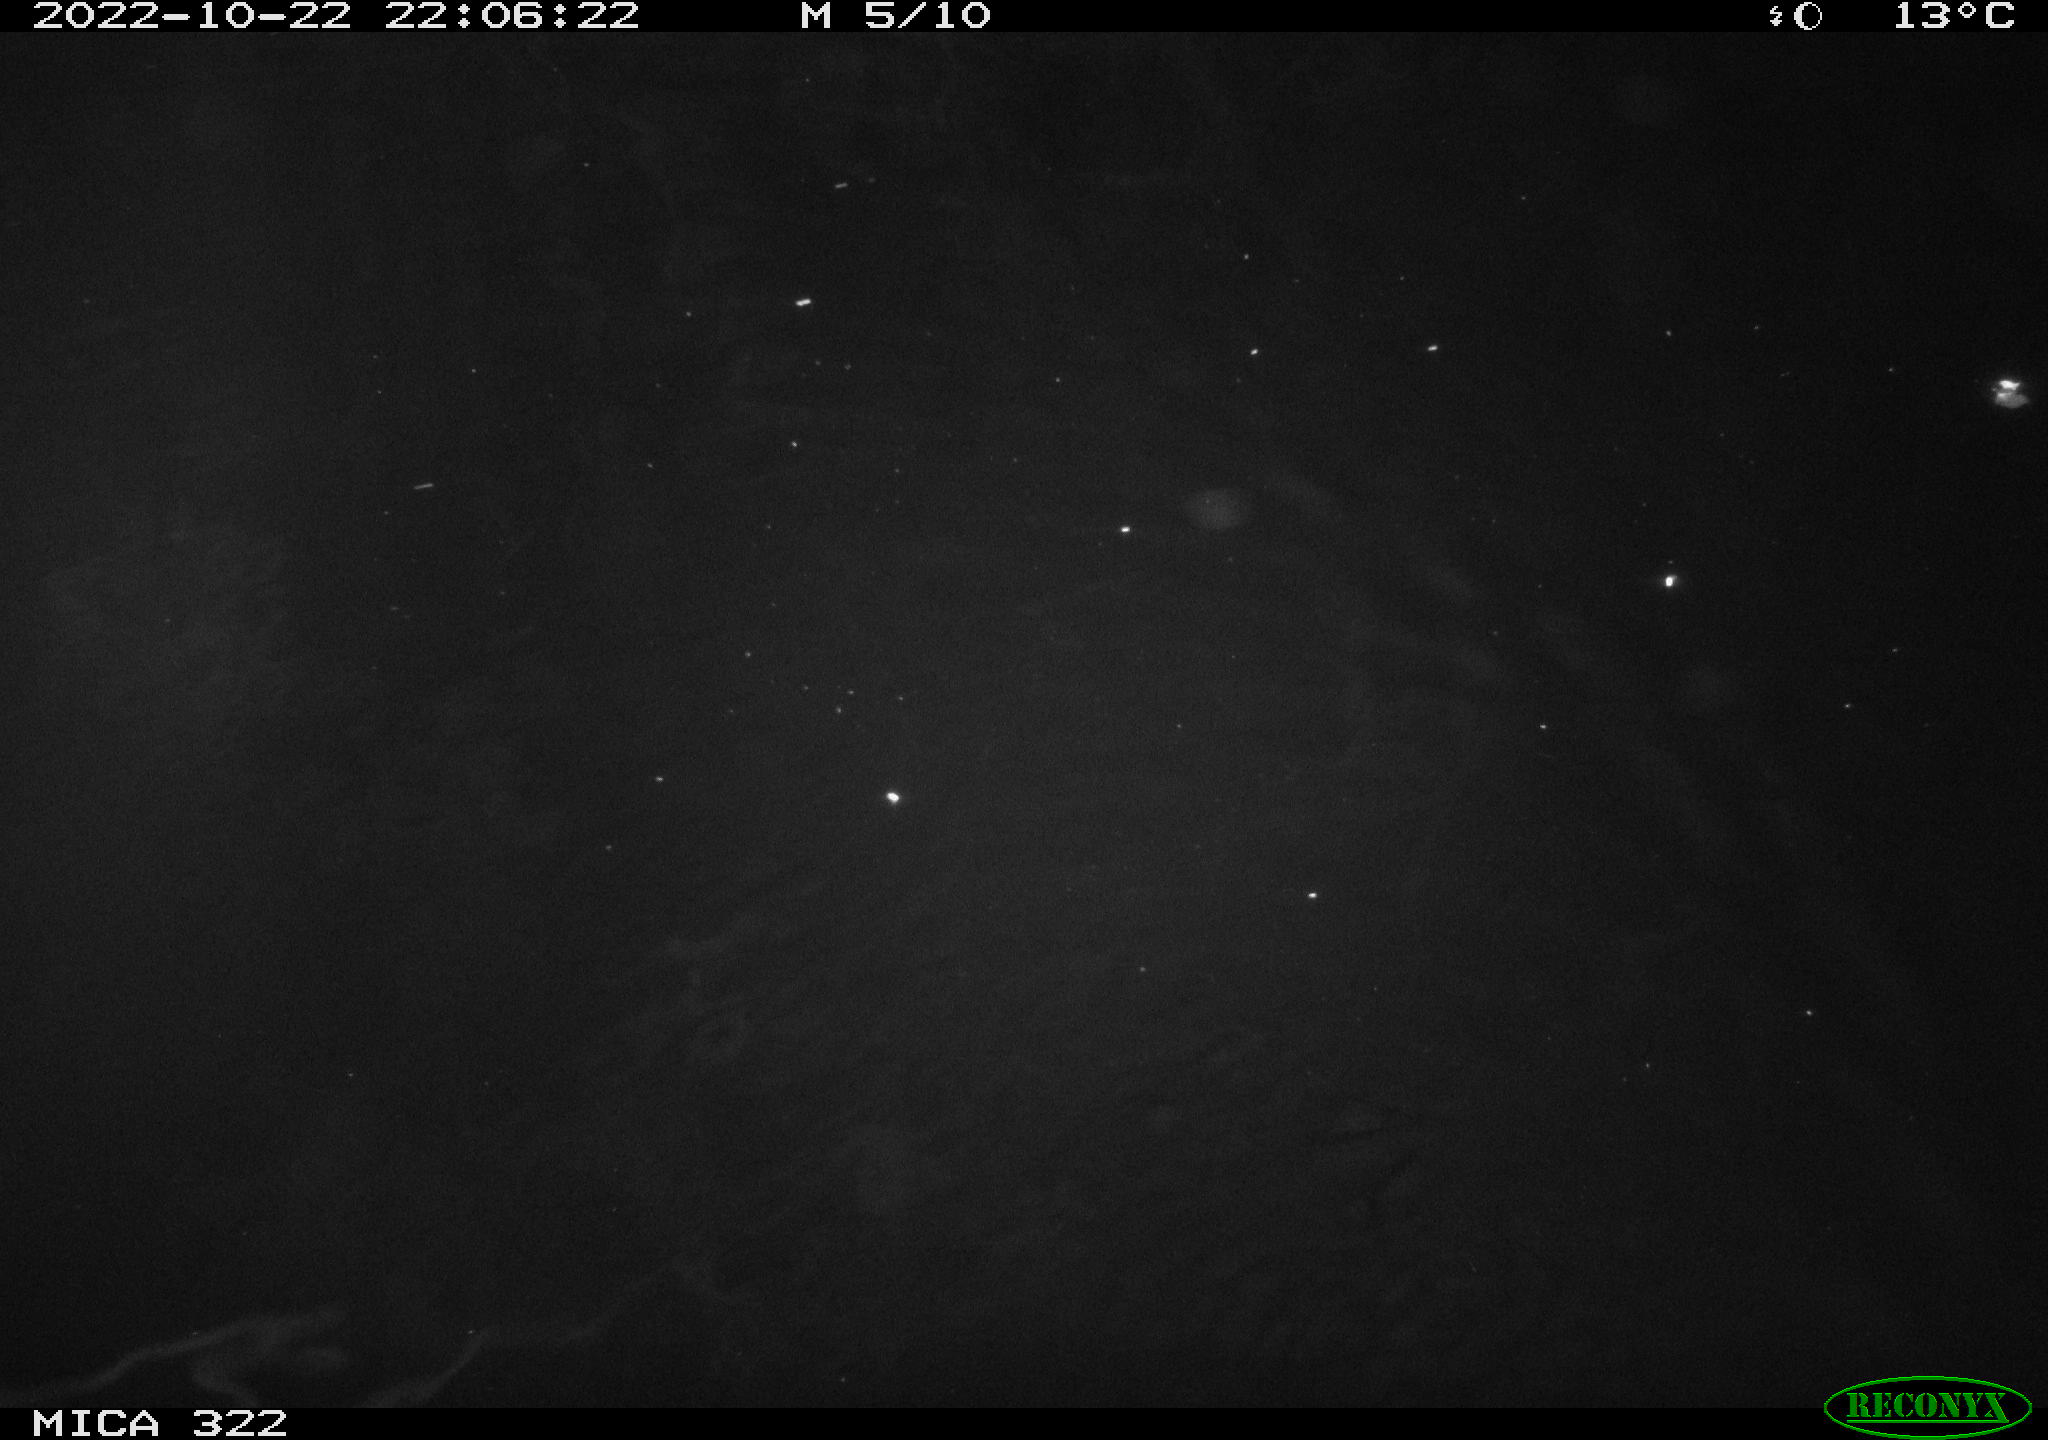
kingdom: Animalia
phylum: Chordata
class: Mammalia
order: Rodentia
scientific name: Rodentia
